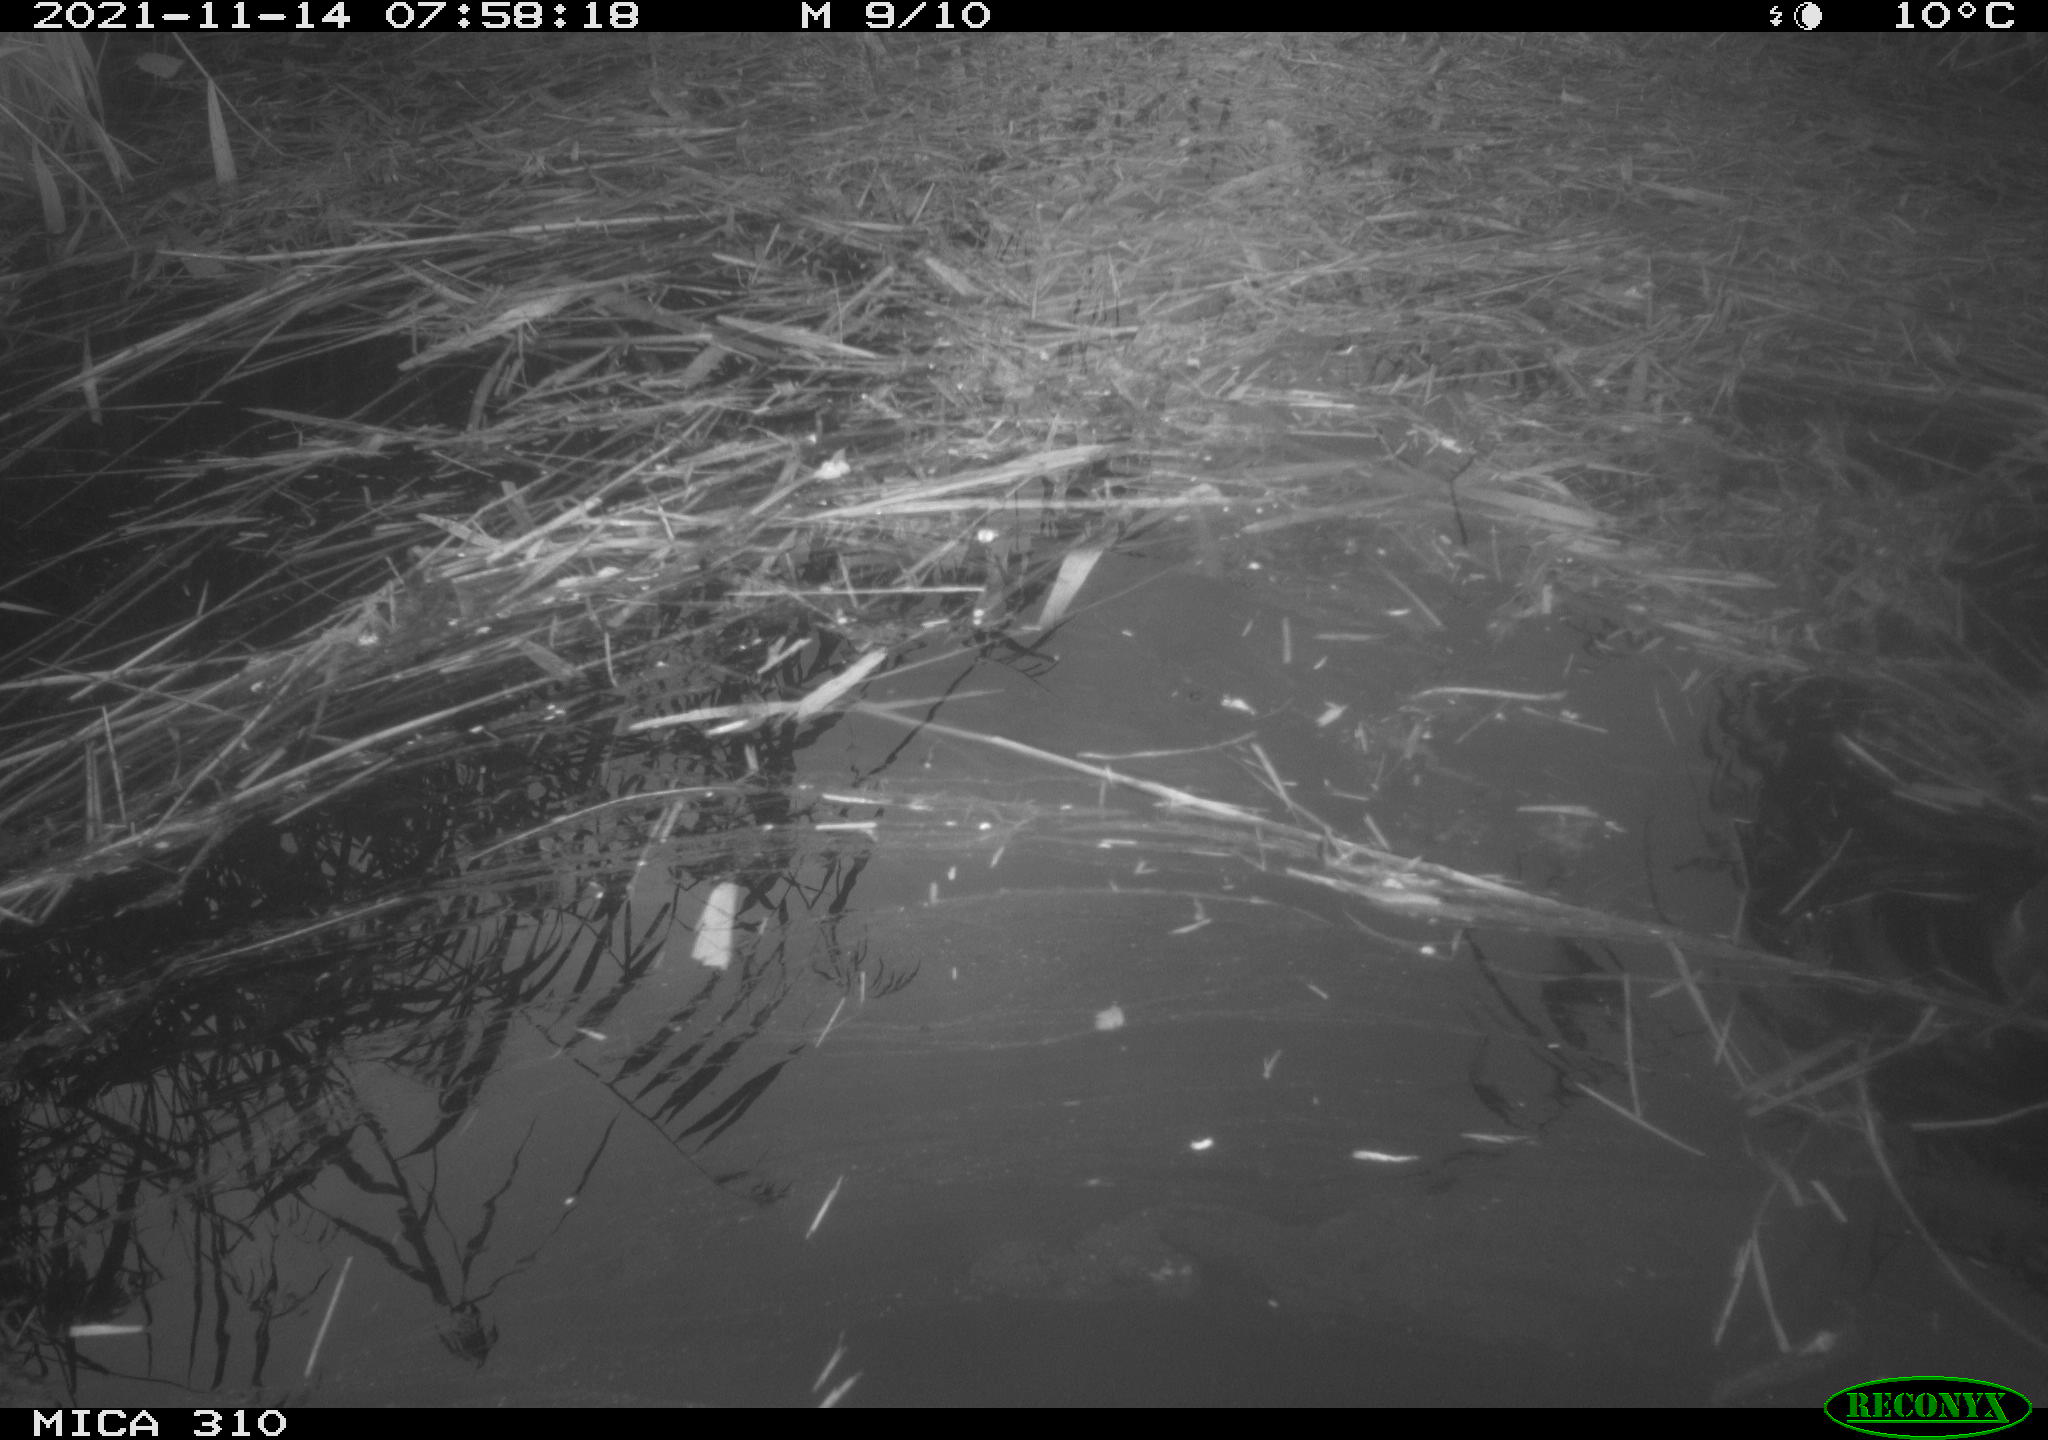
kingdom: Animalia
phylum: Chordata
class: Aves
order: Gruiformes
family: Rallidae
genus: Gallinula
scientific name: Gallinula chloropus
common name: Common moorhen
